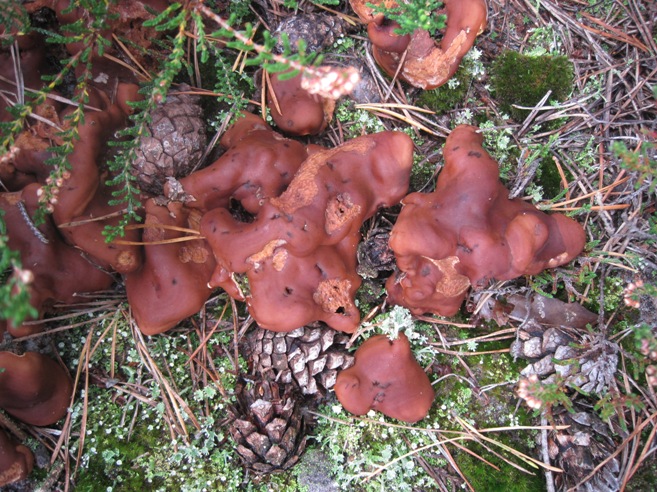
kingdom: Fungi
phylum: Ascomycota
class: Pezizomycetes
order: Pezizales
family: Rhizinaceae
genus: Rhizina
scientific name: Rhizina undulata
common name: rodmorkel
